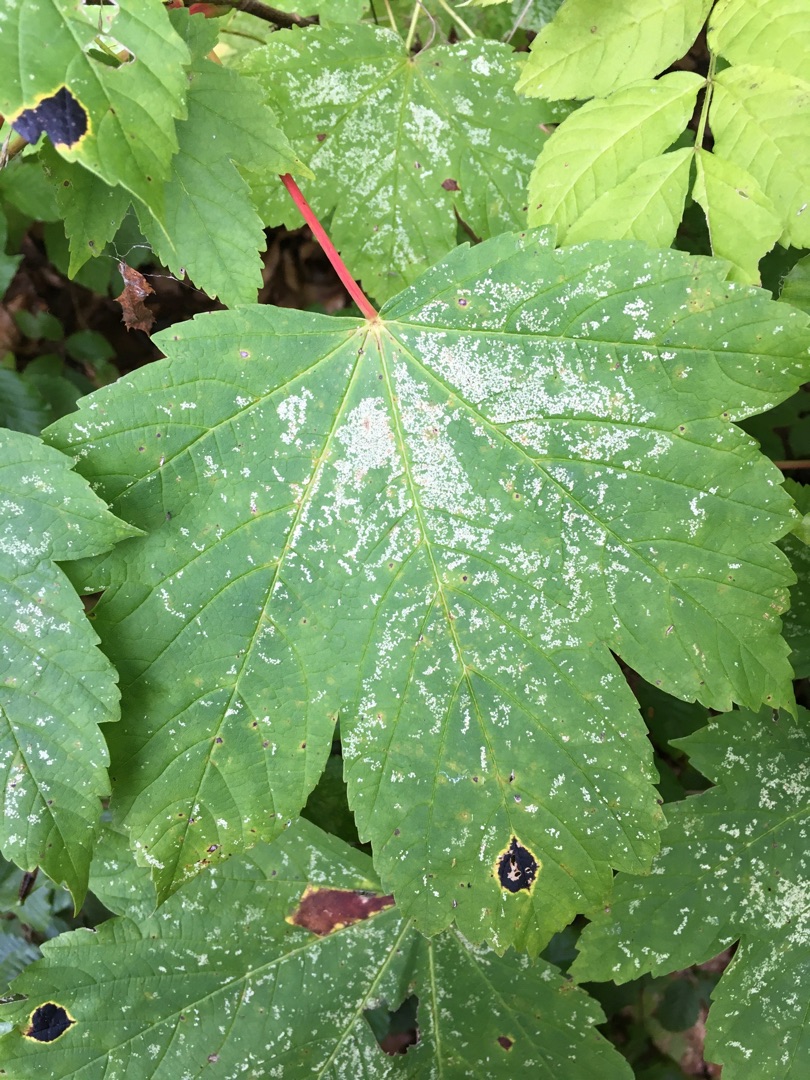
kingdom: Plantae
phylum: Tracheophyta
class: Magnoliopsida
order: Sapindales
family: Sapindaceae
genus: Acer
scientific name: Acer pseudoplatanus
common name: Ahorn
